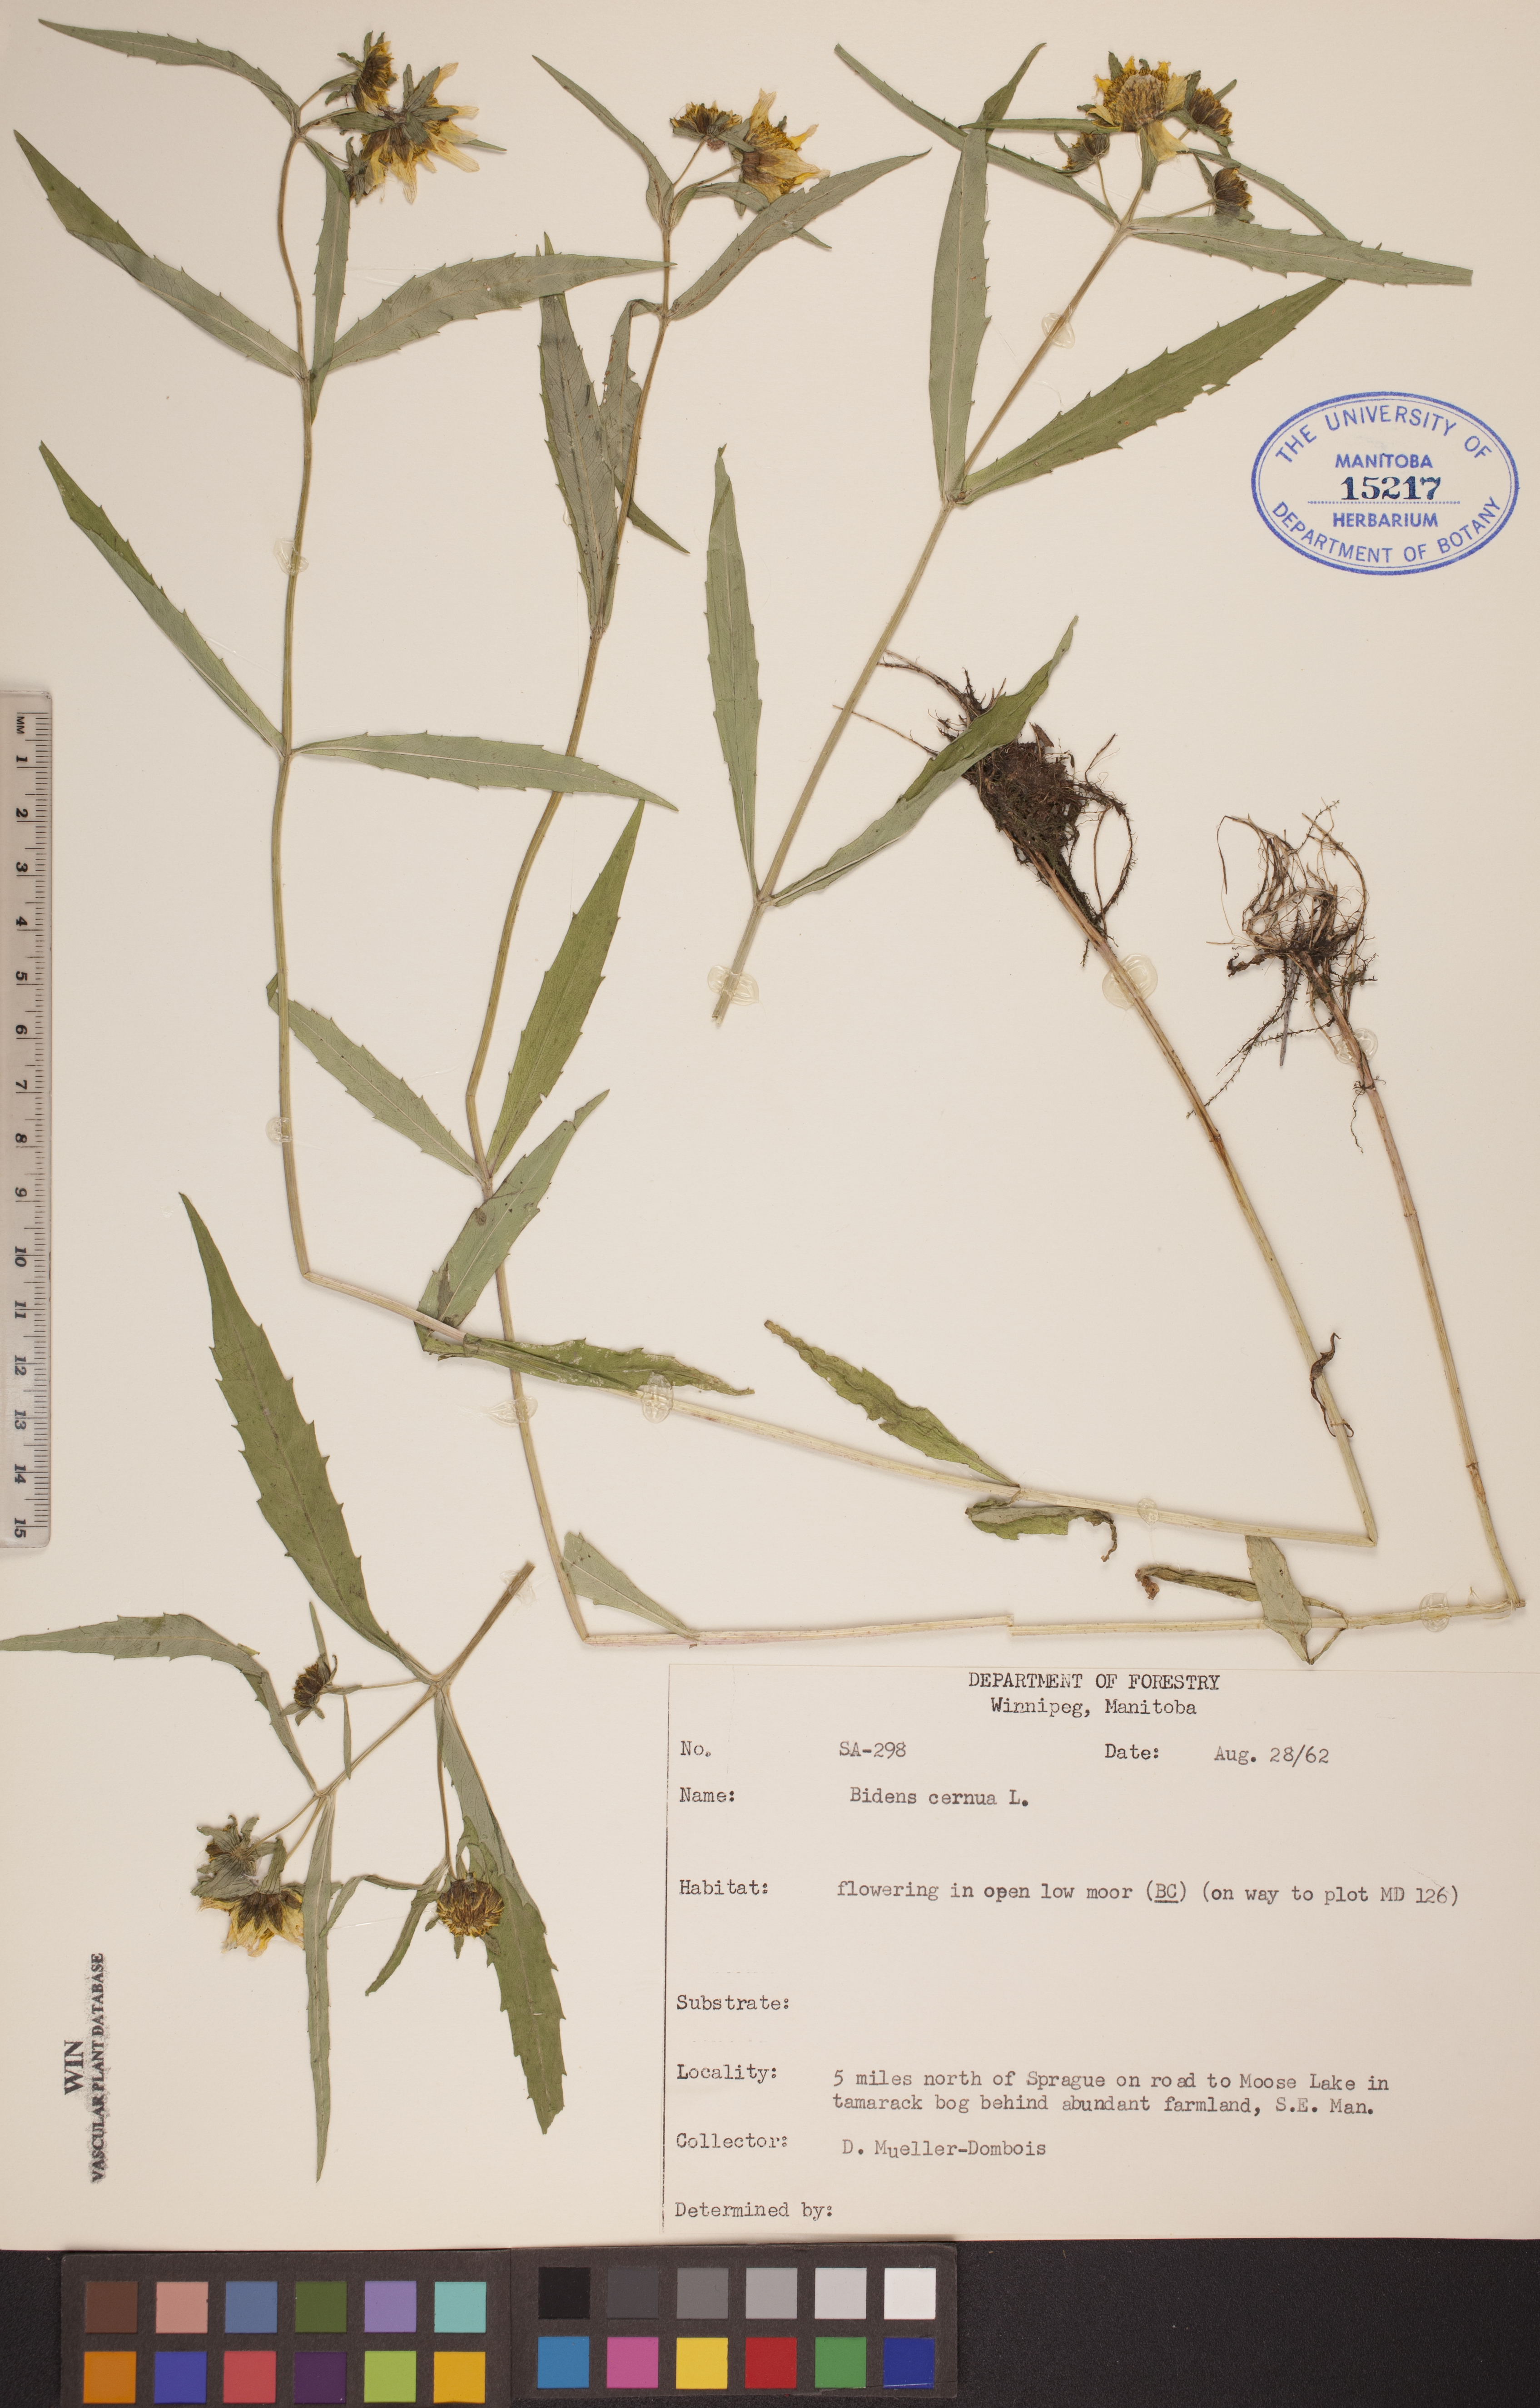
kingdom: Plantae
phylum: Tracheophyta
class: Magnoliopsida
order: Asterales
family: Asteraceae
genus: Bidens
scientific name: Bidens cernua
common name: Nodding bur-marigold
